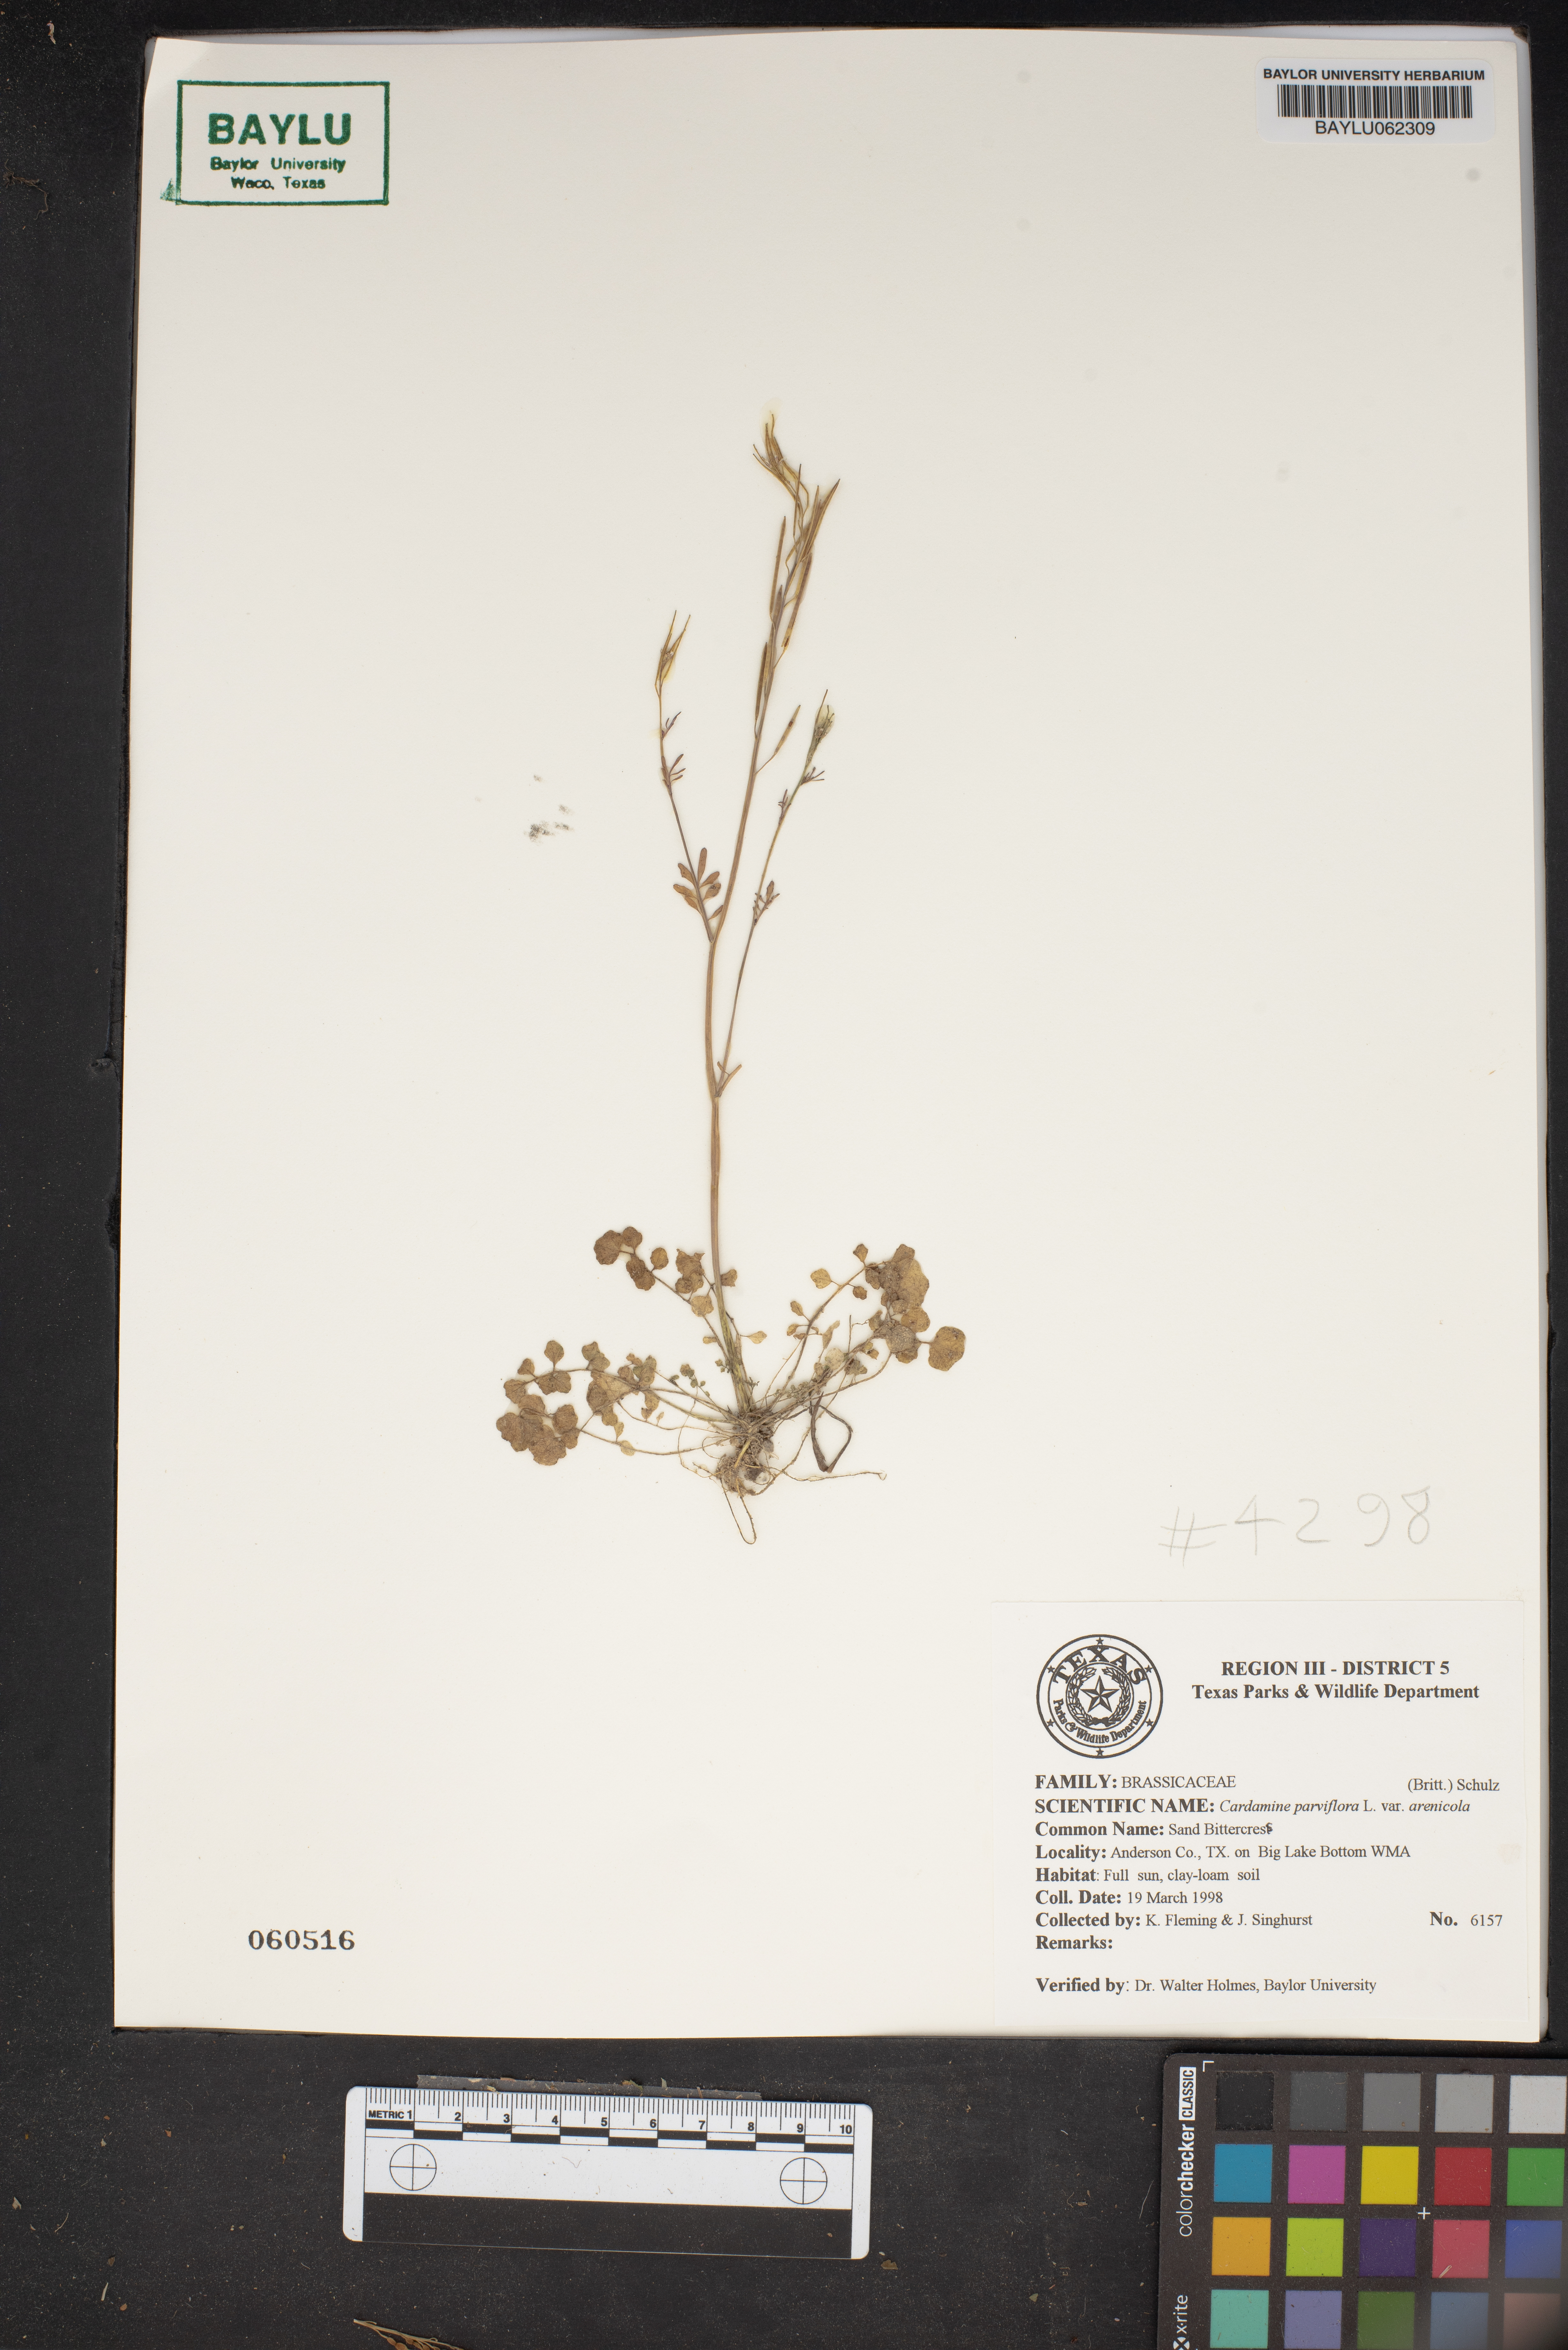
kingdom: Plantae
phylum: Tracheophyta
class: Magnoliopsida
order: Brassicales
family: Brassicaceae
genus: Cardamine
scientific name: Cardamine parviflora
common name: Sand bittercress
